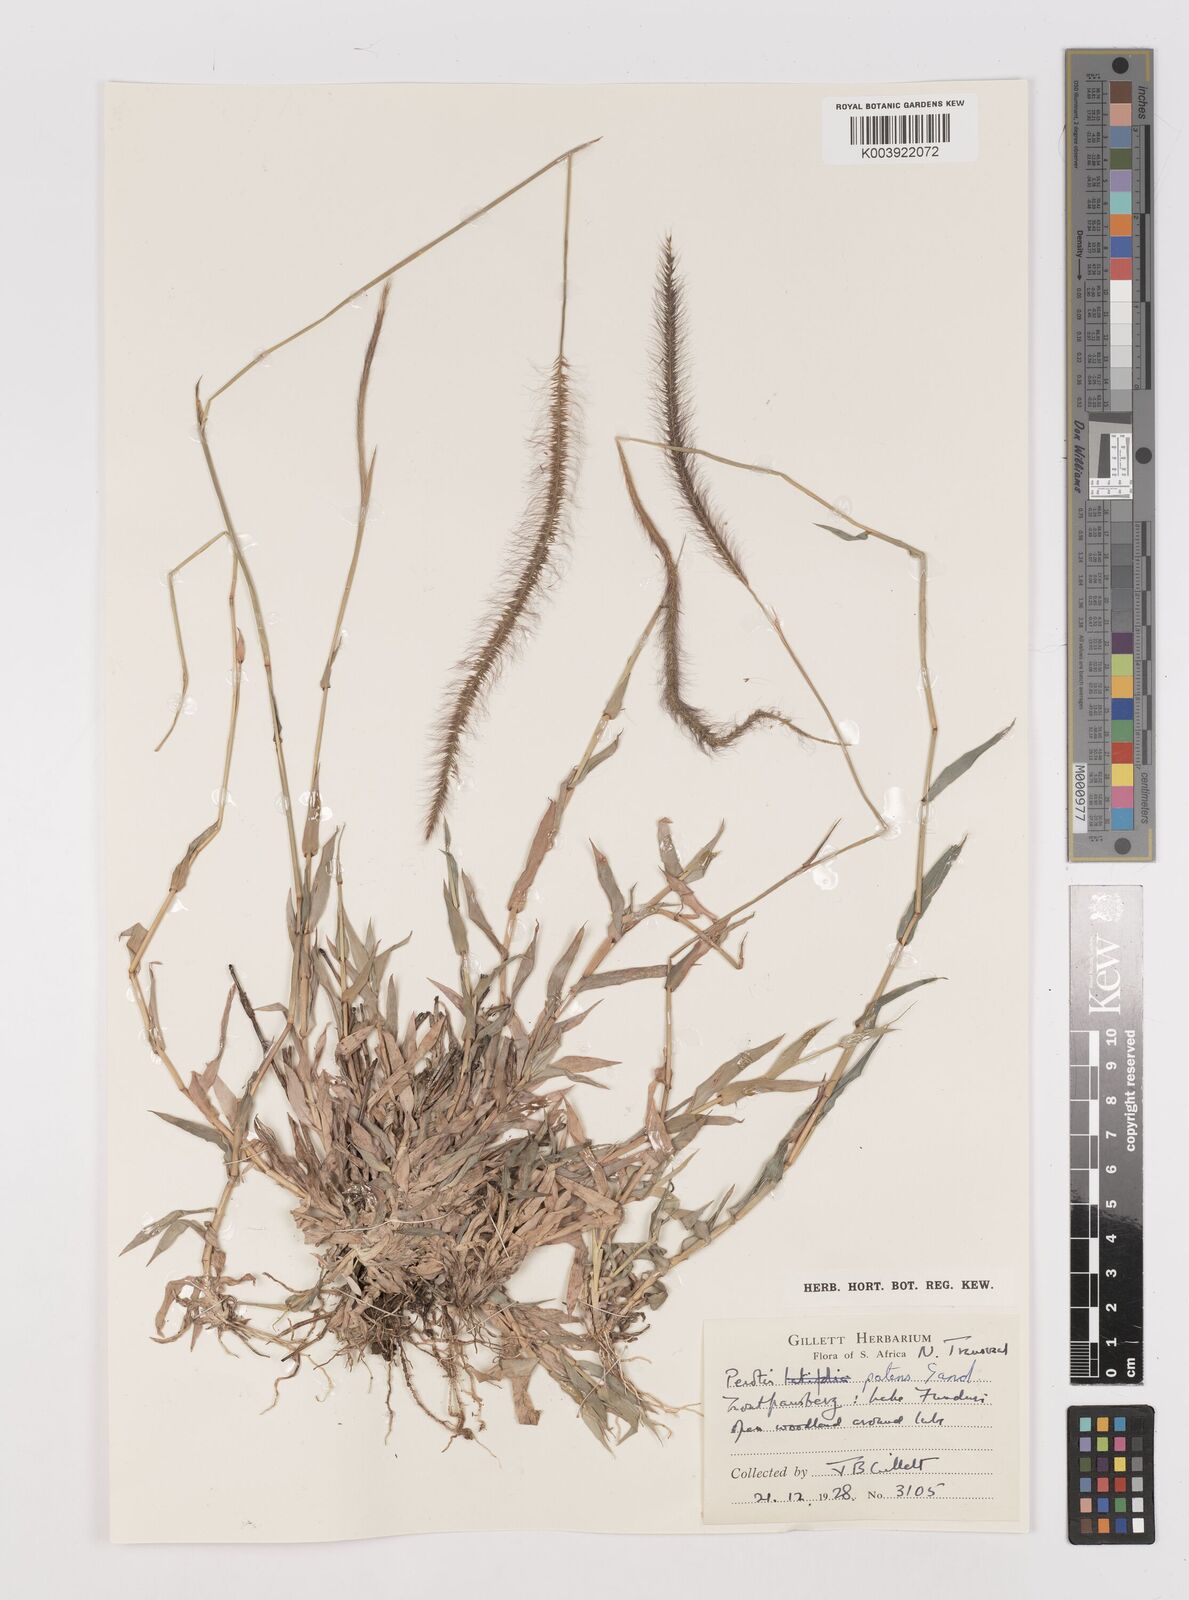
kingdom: Plantae
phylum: Tracheophyta
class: Liliopsida
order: Poales
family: Poaceae
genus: Perotis
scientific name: Perotis patens
